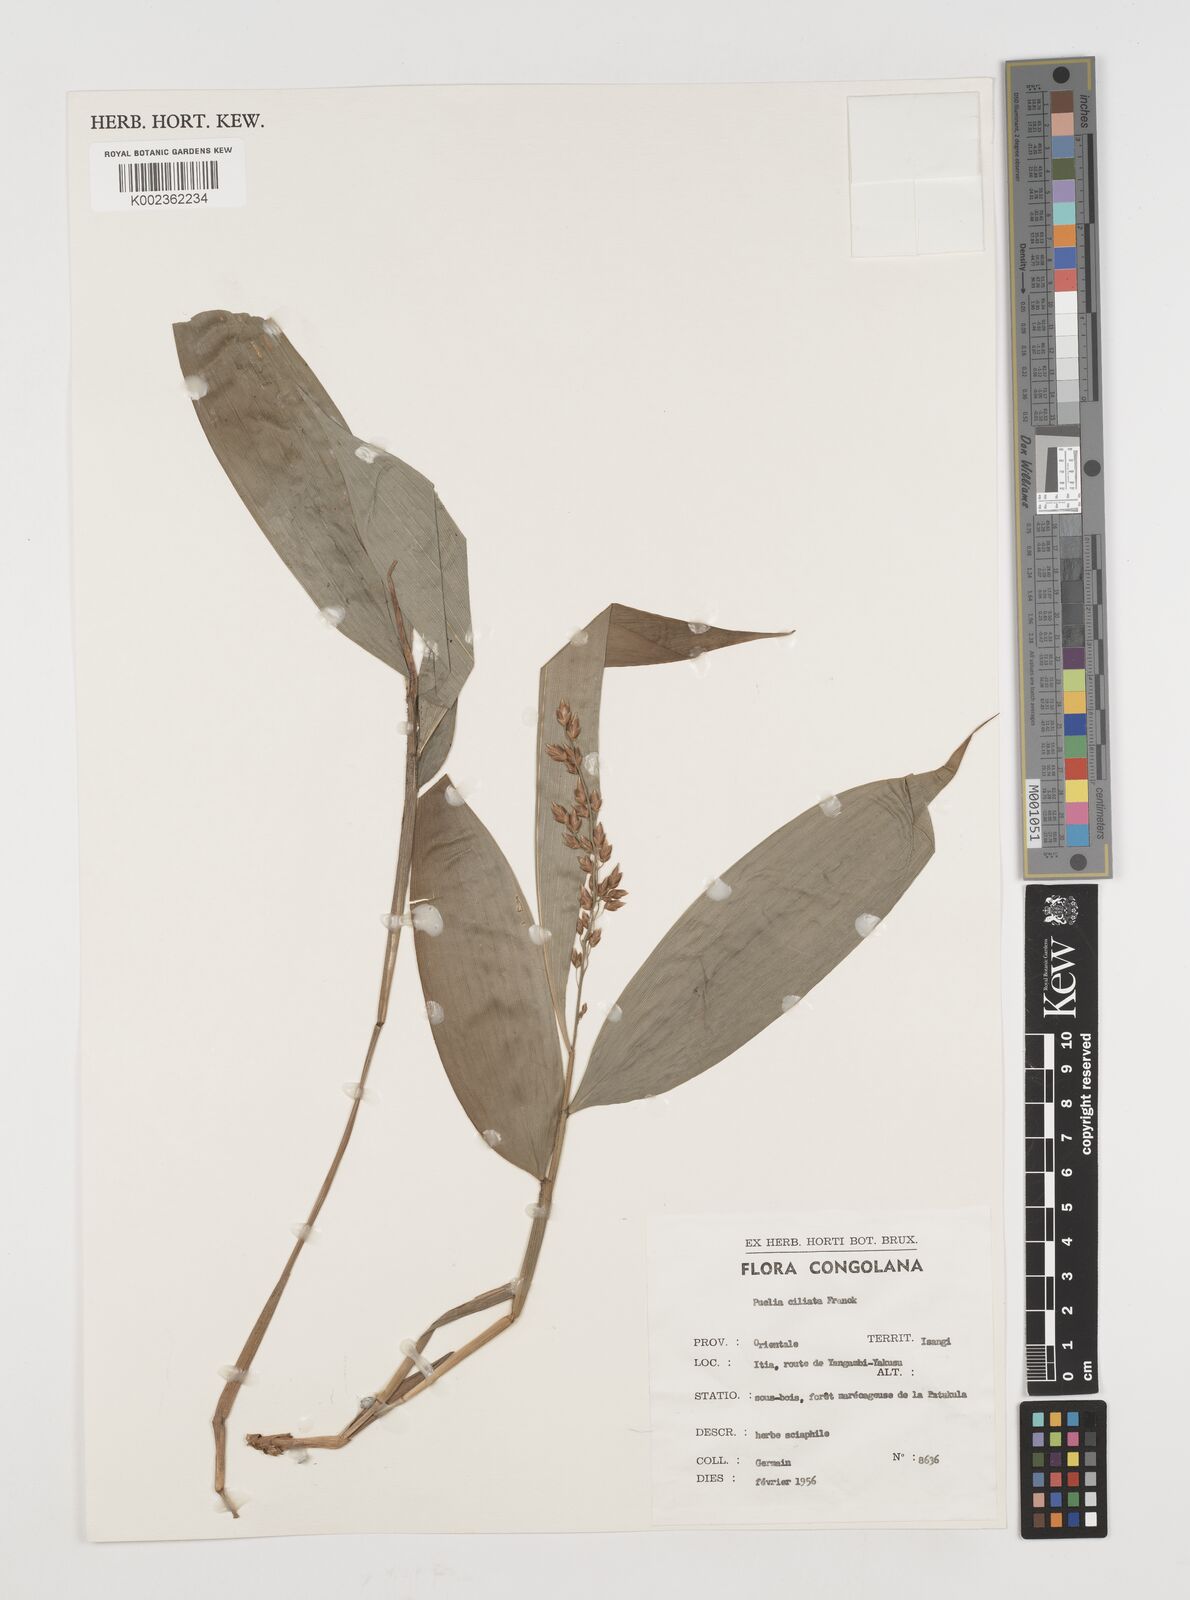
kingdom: Plantae
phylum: Tracheophyta
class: Liliopsida
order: Poales
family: Poaceae
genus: Puelia
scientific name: Puelia coriacea
